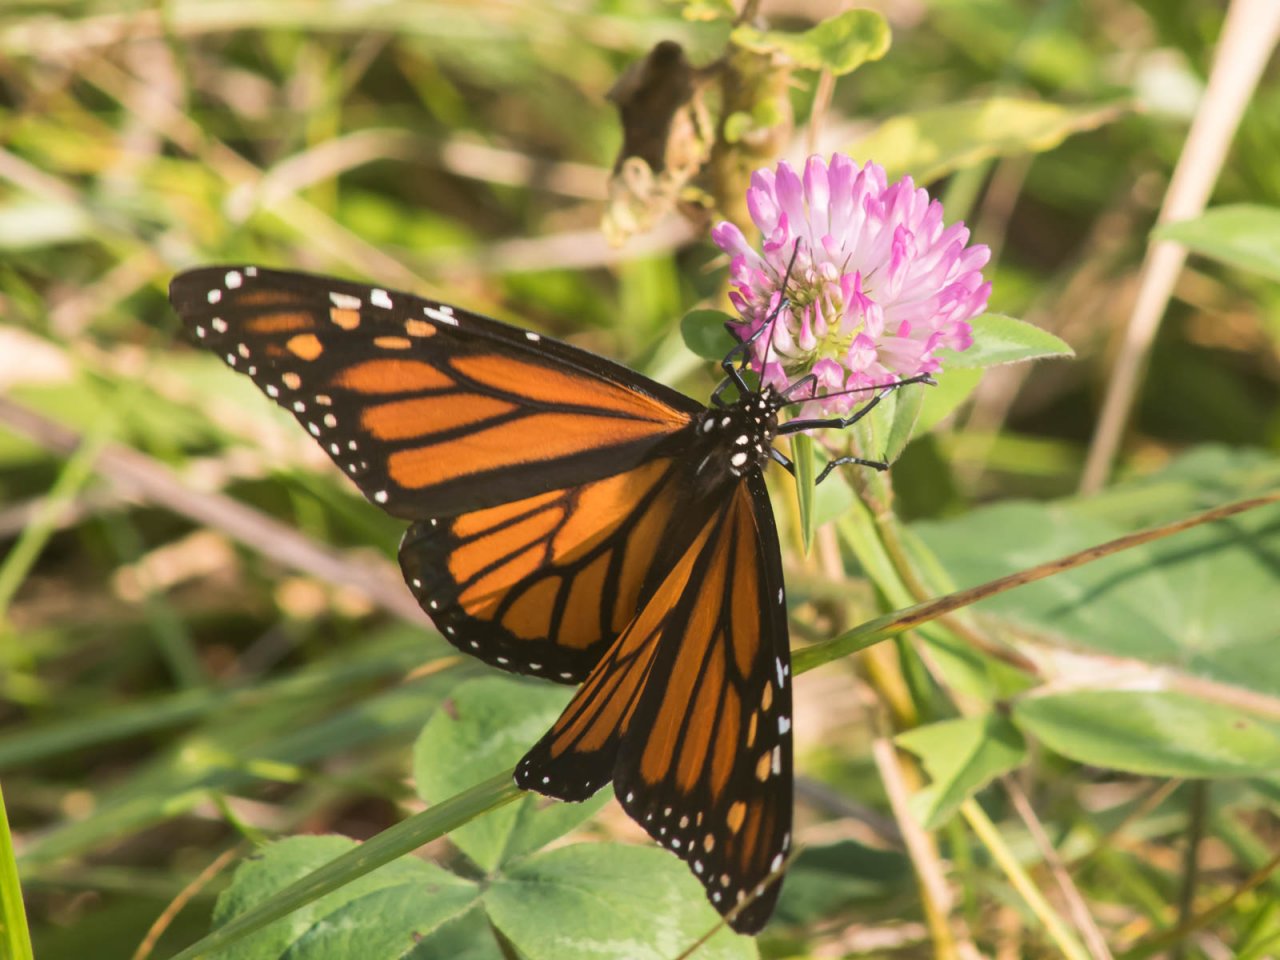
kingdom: Animalia
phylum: Arthropoda
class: Insecta
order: Lepidoptera
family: Nymphalidae
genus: Danaus
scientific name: Danaus plexippus
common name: Monarch
